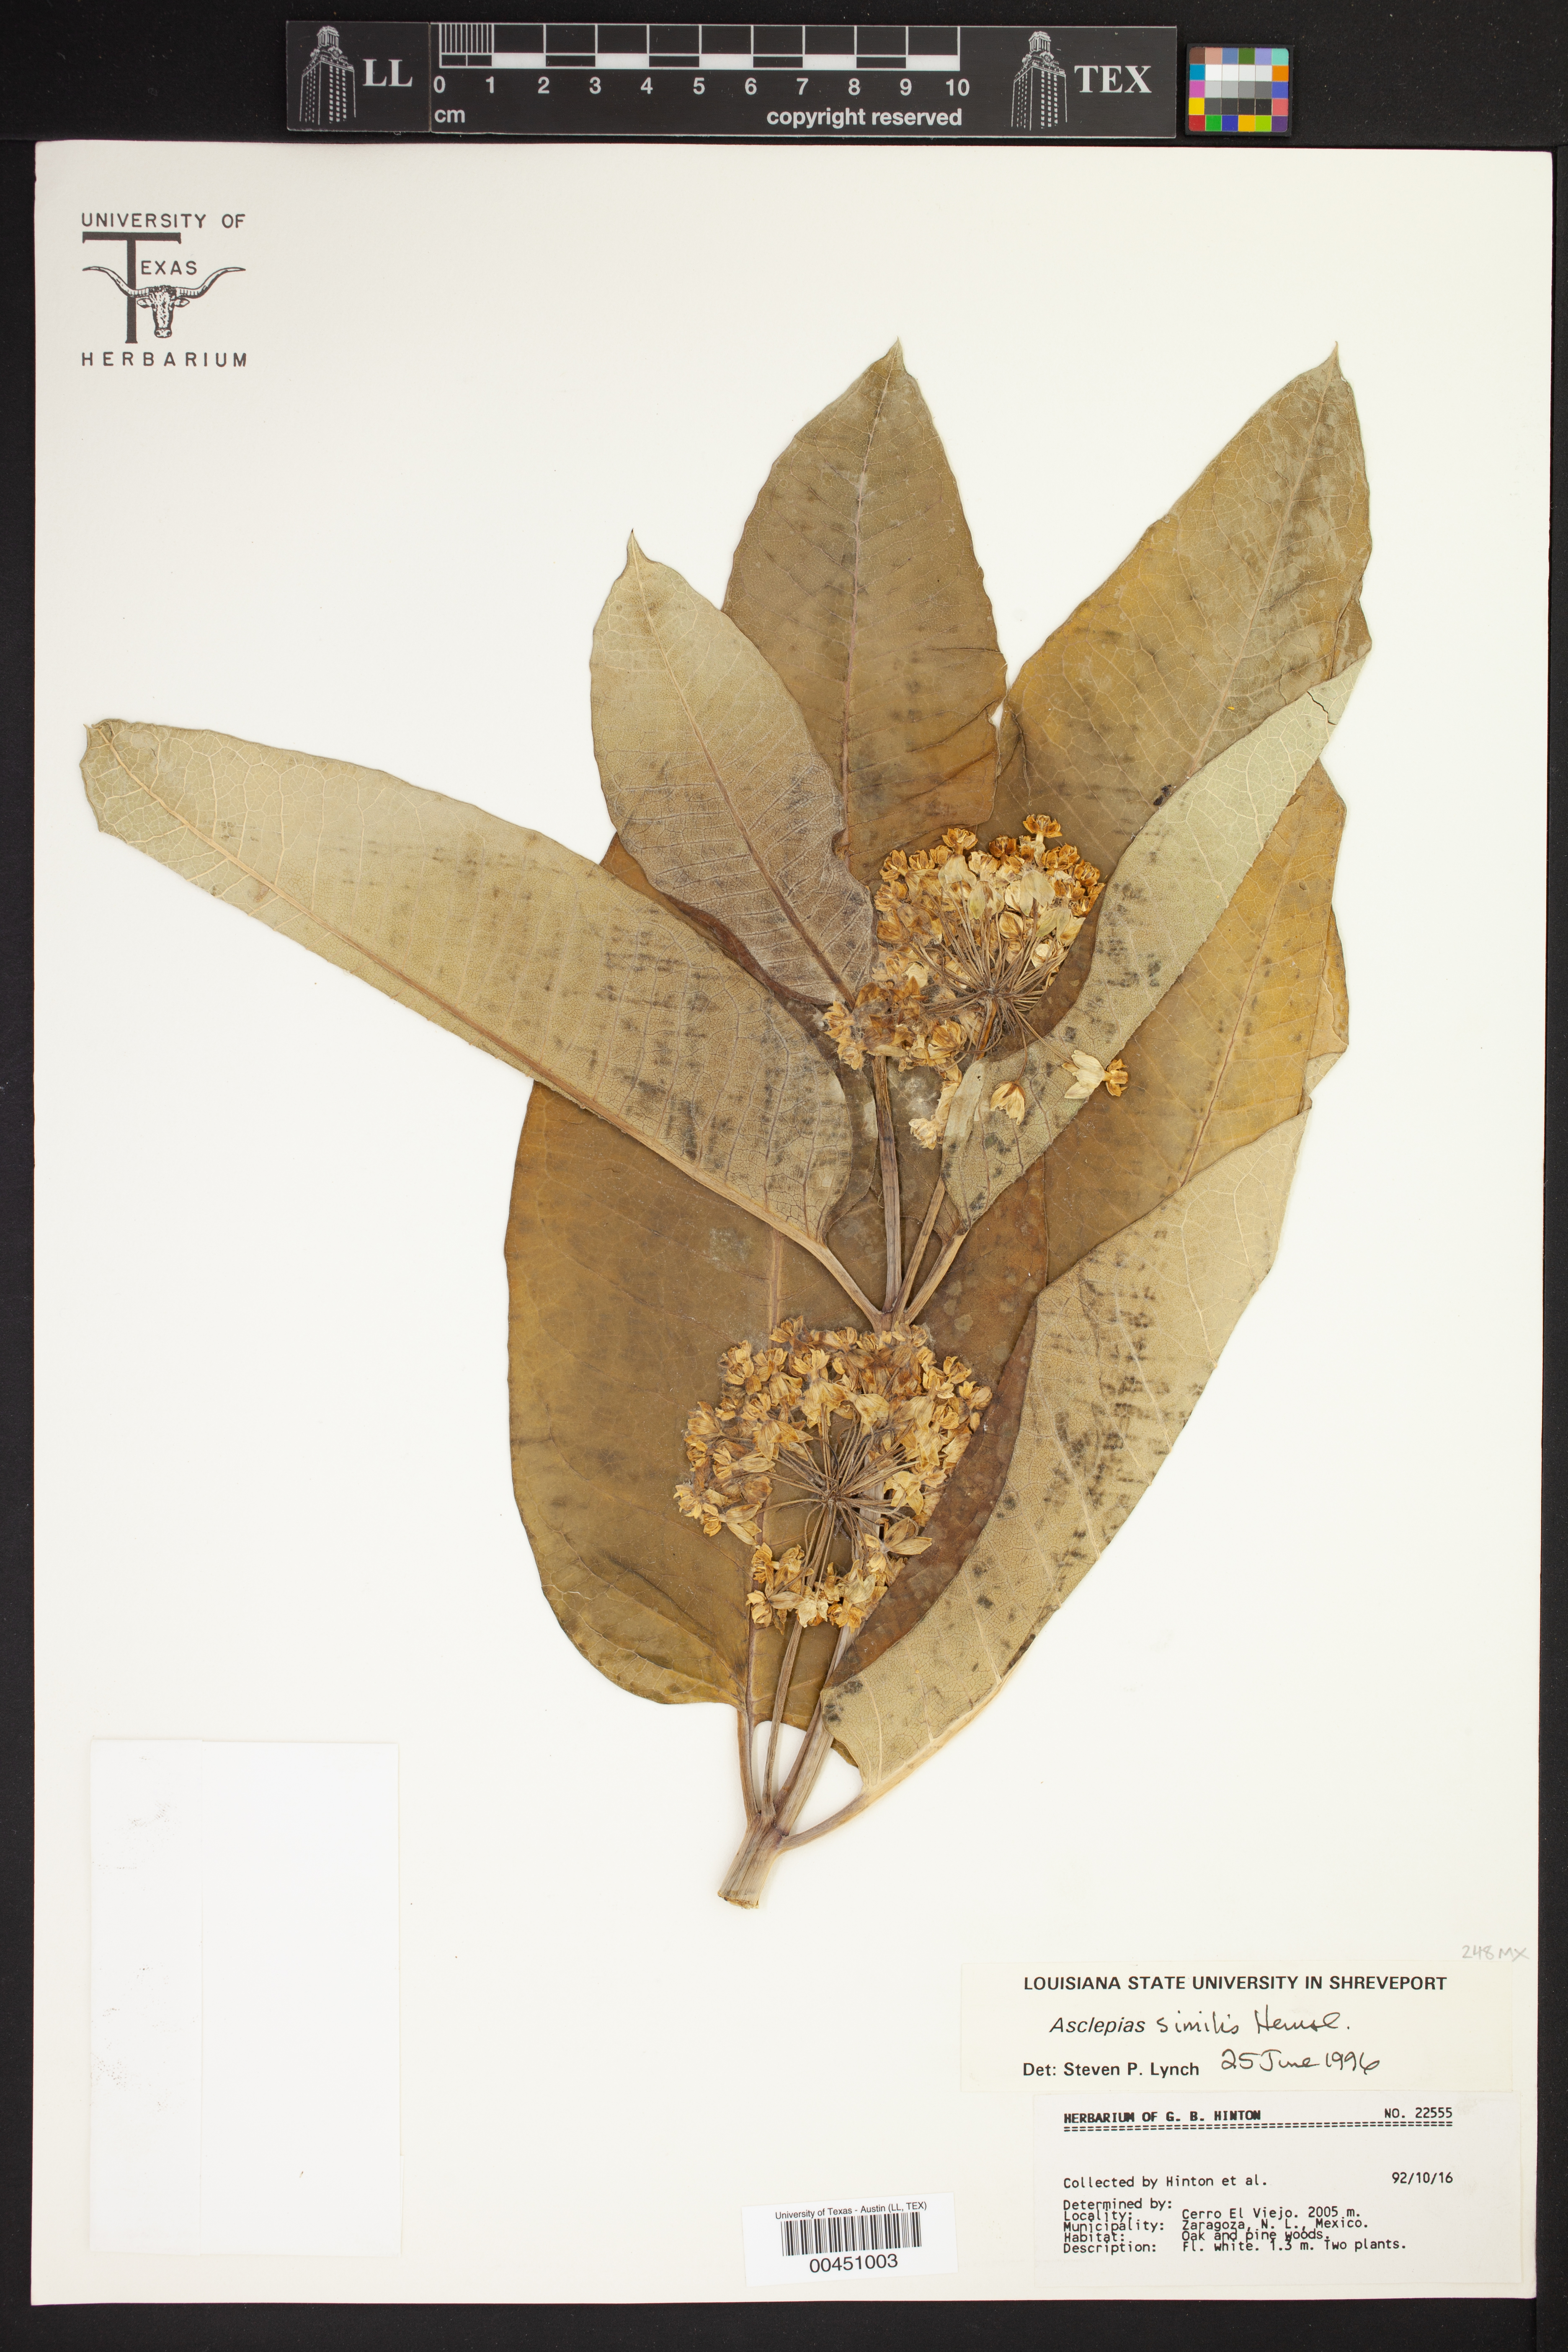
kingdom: Plantae
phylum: Tracheophyta
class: Magnoliopsida
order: Gentianales
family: Apocynaceae
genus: Asclepias
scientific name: Asclepias similis
